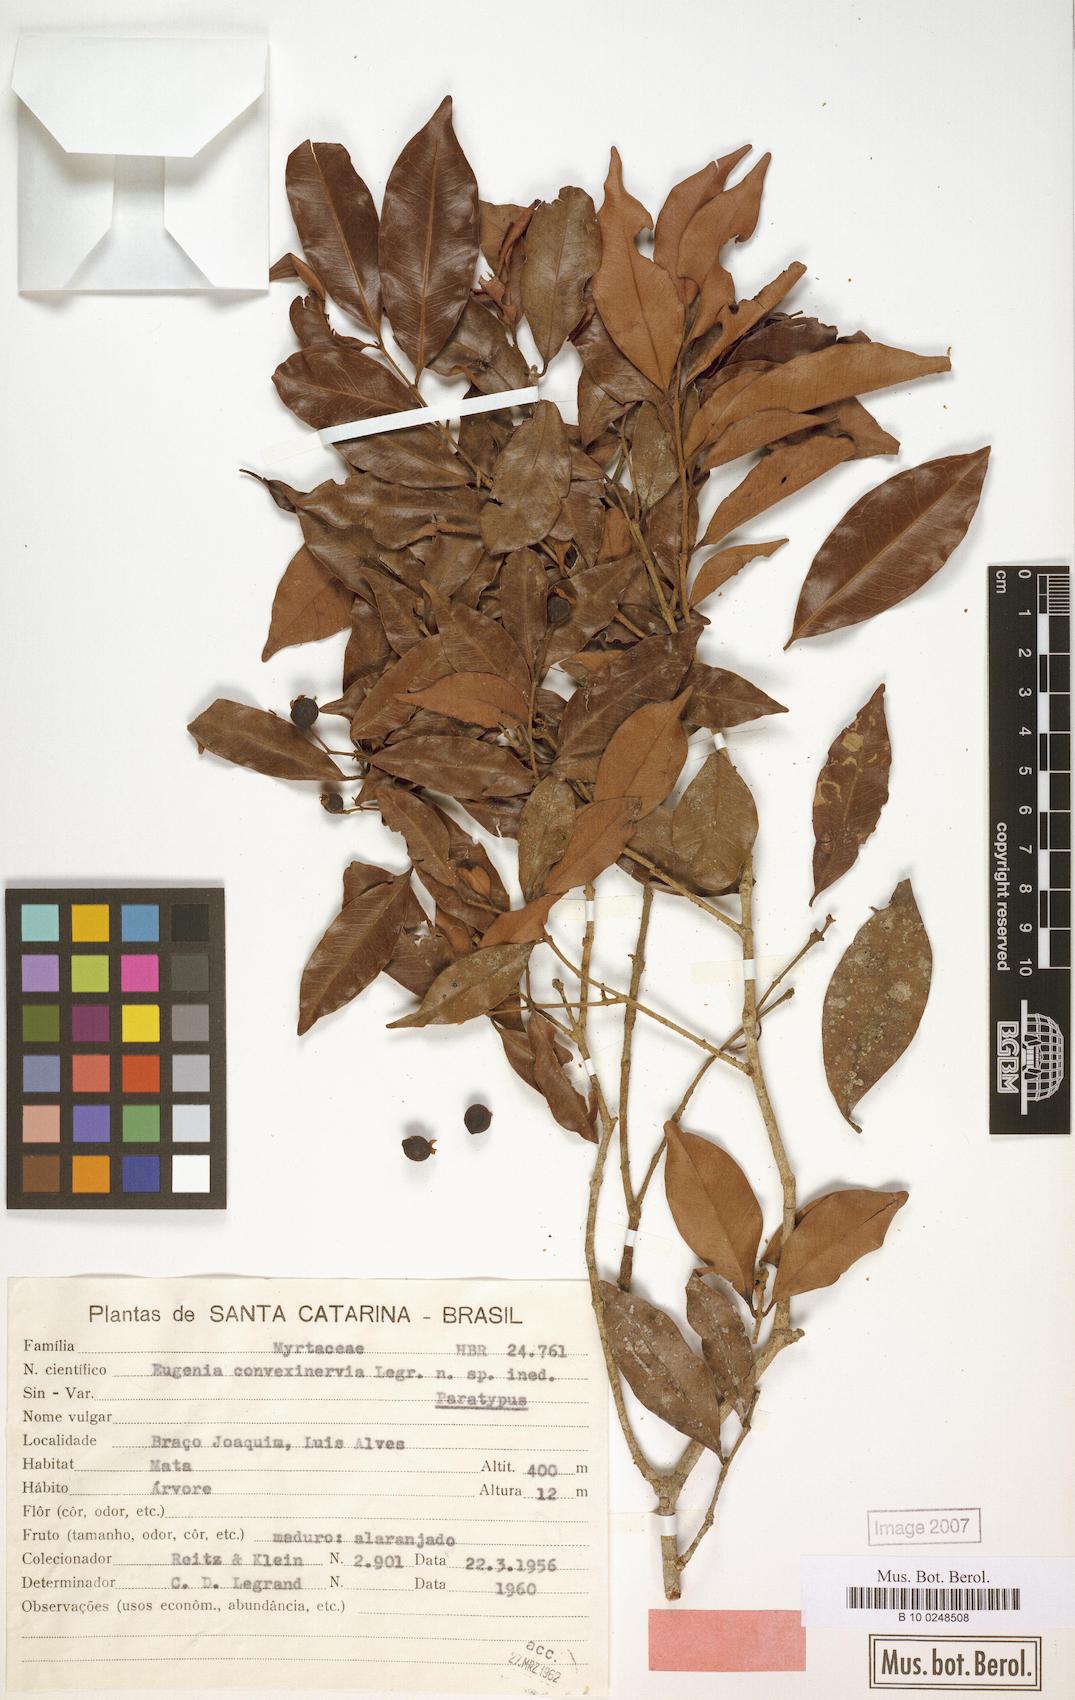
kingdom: Plantae
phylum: Tracheophyta
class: Magnoliopsida
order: Myrtales
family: Myrtaceae
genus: Eugenia
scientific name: Eugenia convexinervia
